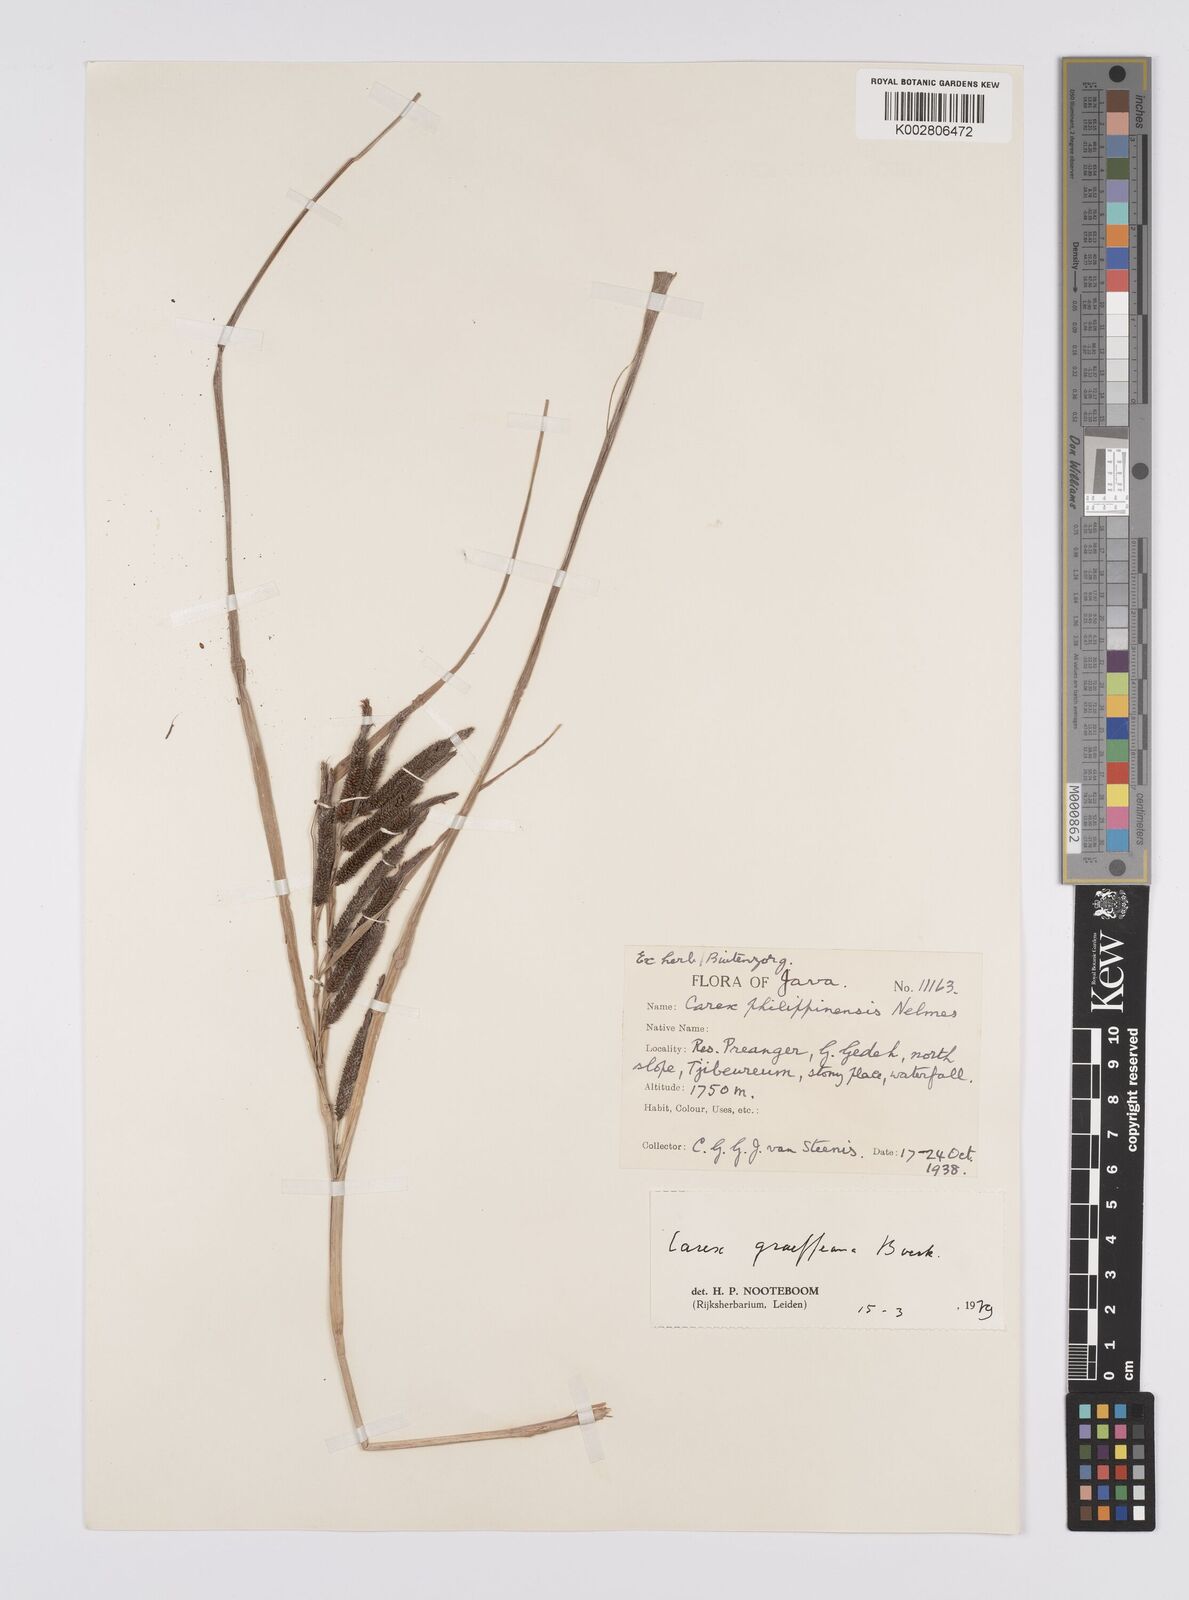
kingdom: Plantae
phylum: Tracheophyta
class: Liliopsida
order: Poales
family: Cyperaceae
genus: Carex
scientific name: Carex graeffeana
